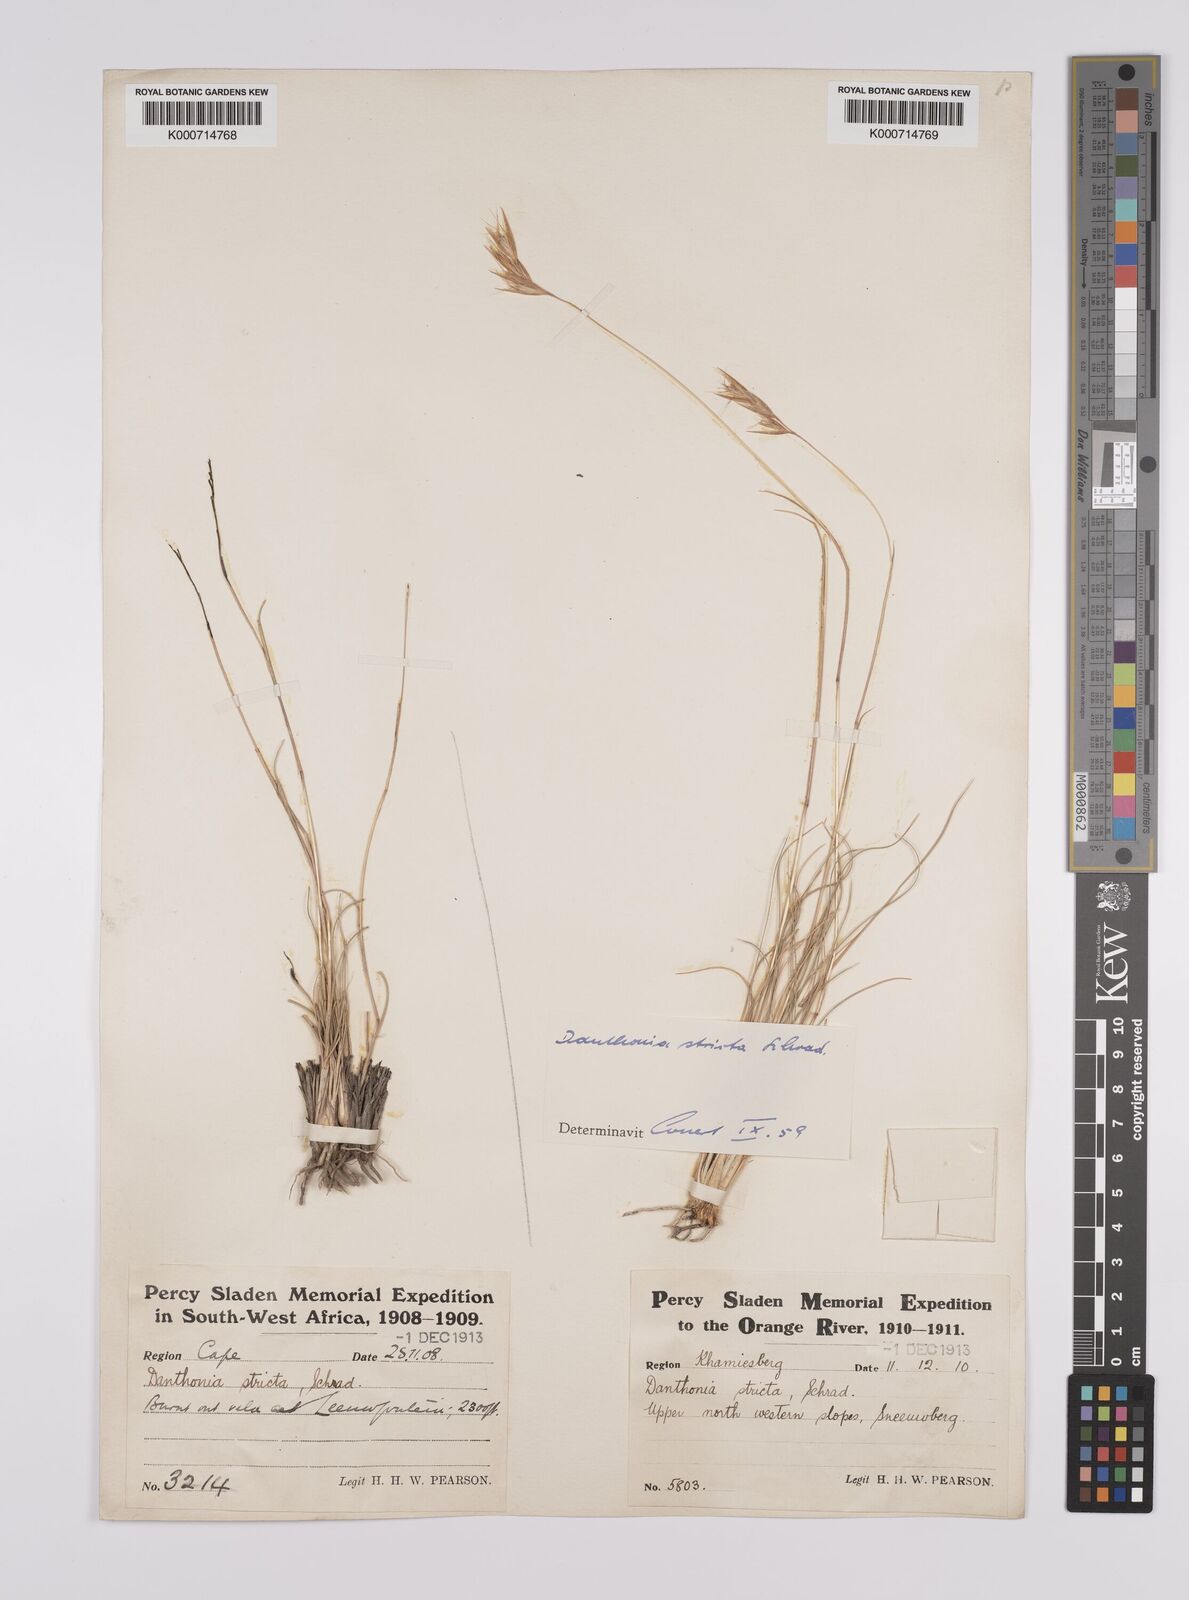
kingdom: Plantae
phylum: Tracheophyta
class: Liliopsida
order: Poales
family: Poaceae
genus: Rytidosperma
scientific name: Rytidosperma
